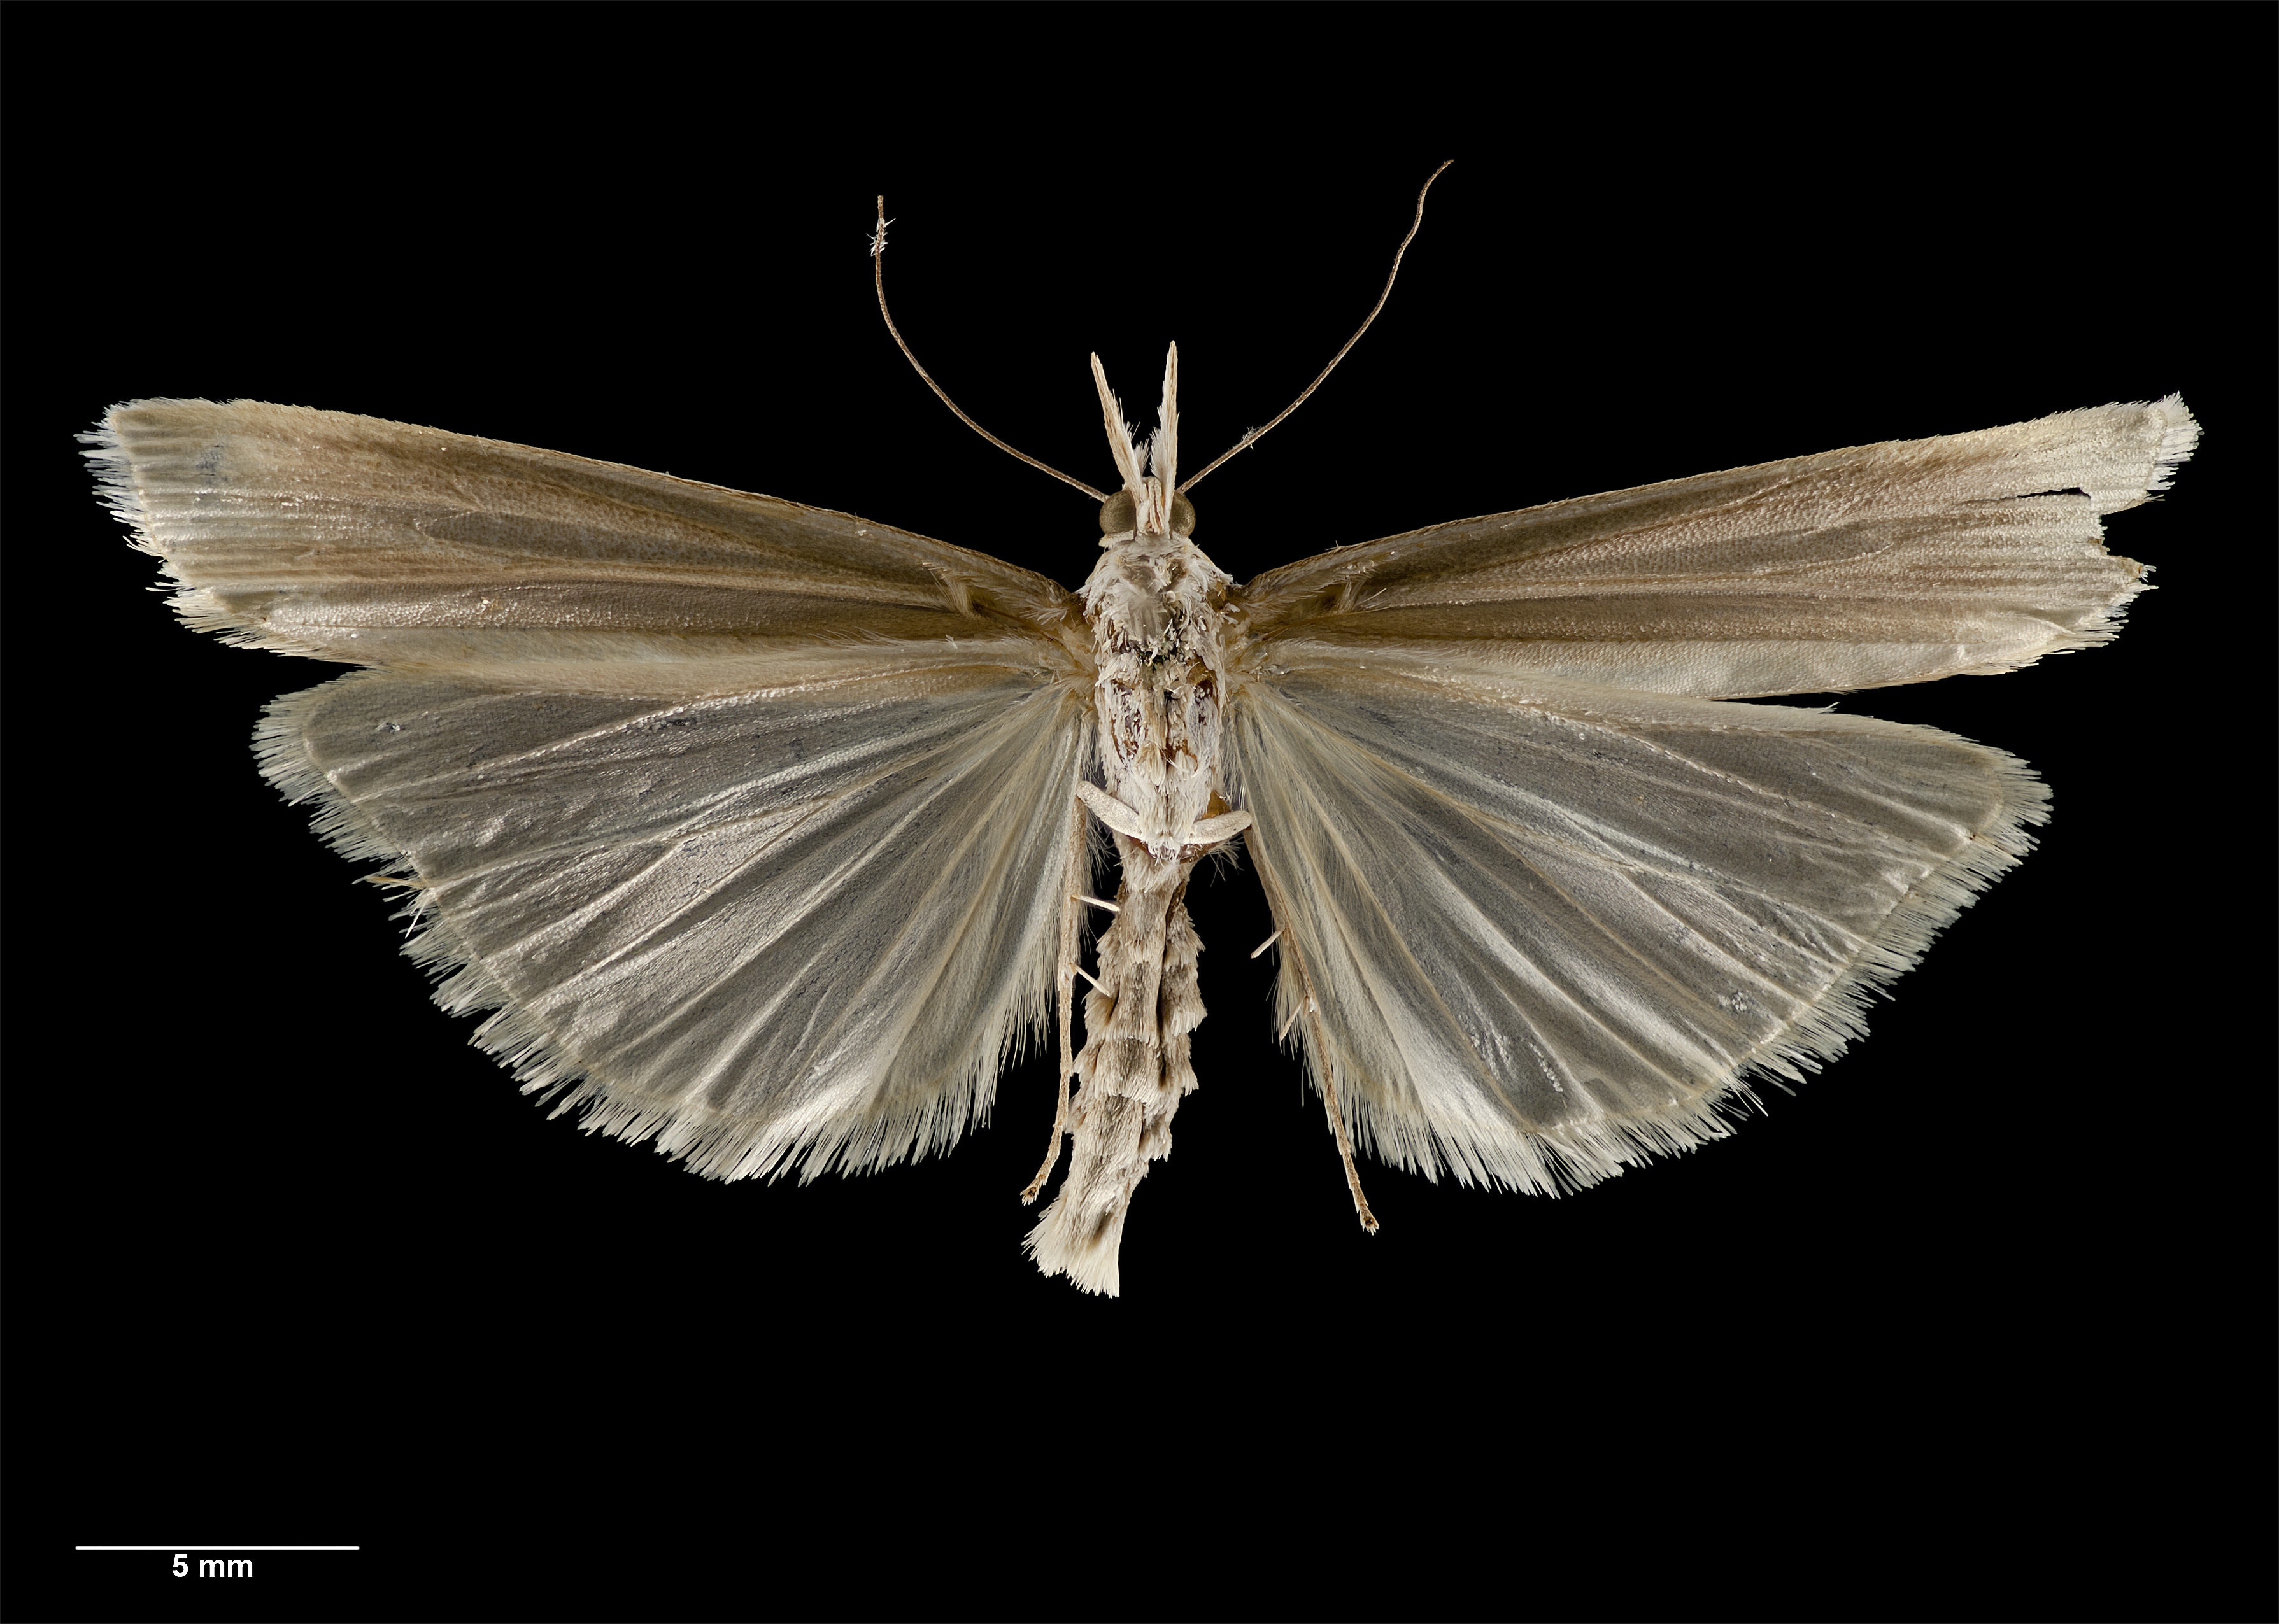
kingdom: Animalia
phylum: Arthropoda
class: Insecta
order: Lepidoptera
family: Crambidae
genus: Orocrambus
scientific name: Orocrambus ephorus
